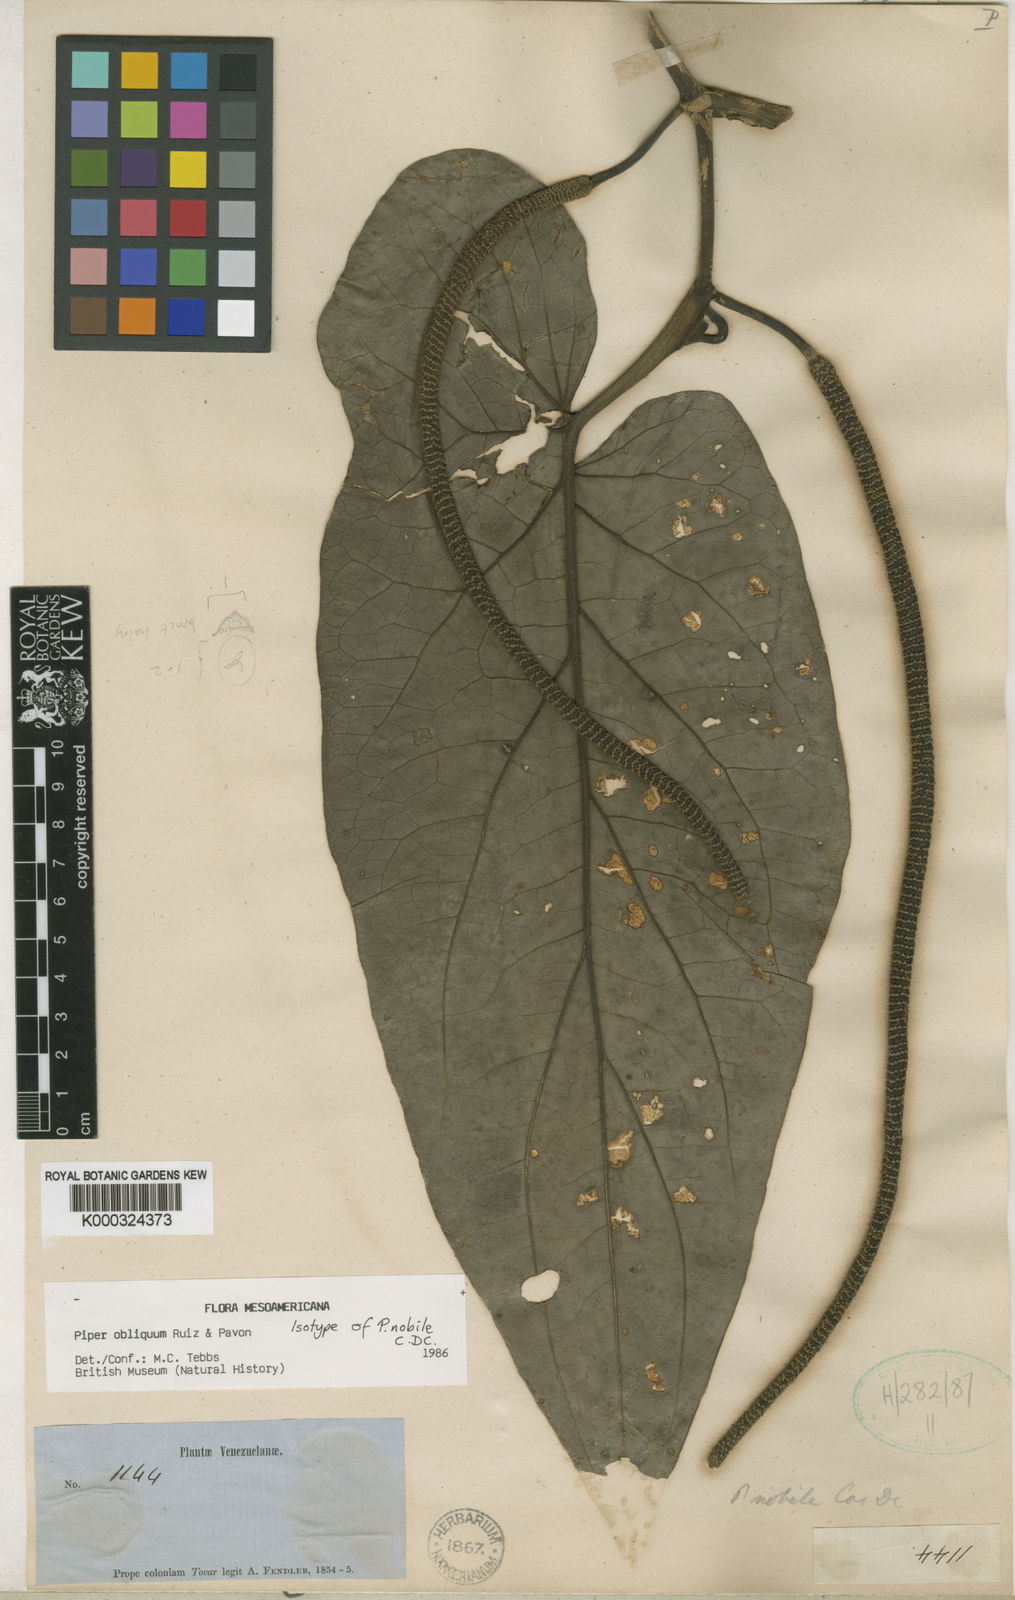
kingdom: Plantae
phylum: Tracheophyta
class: Magnoliopsida
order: Piperales
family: Piperaceae
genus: Piper
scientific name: Piper obliquum
